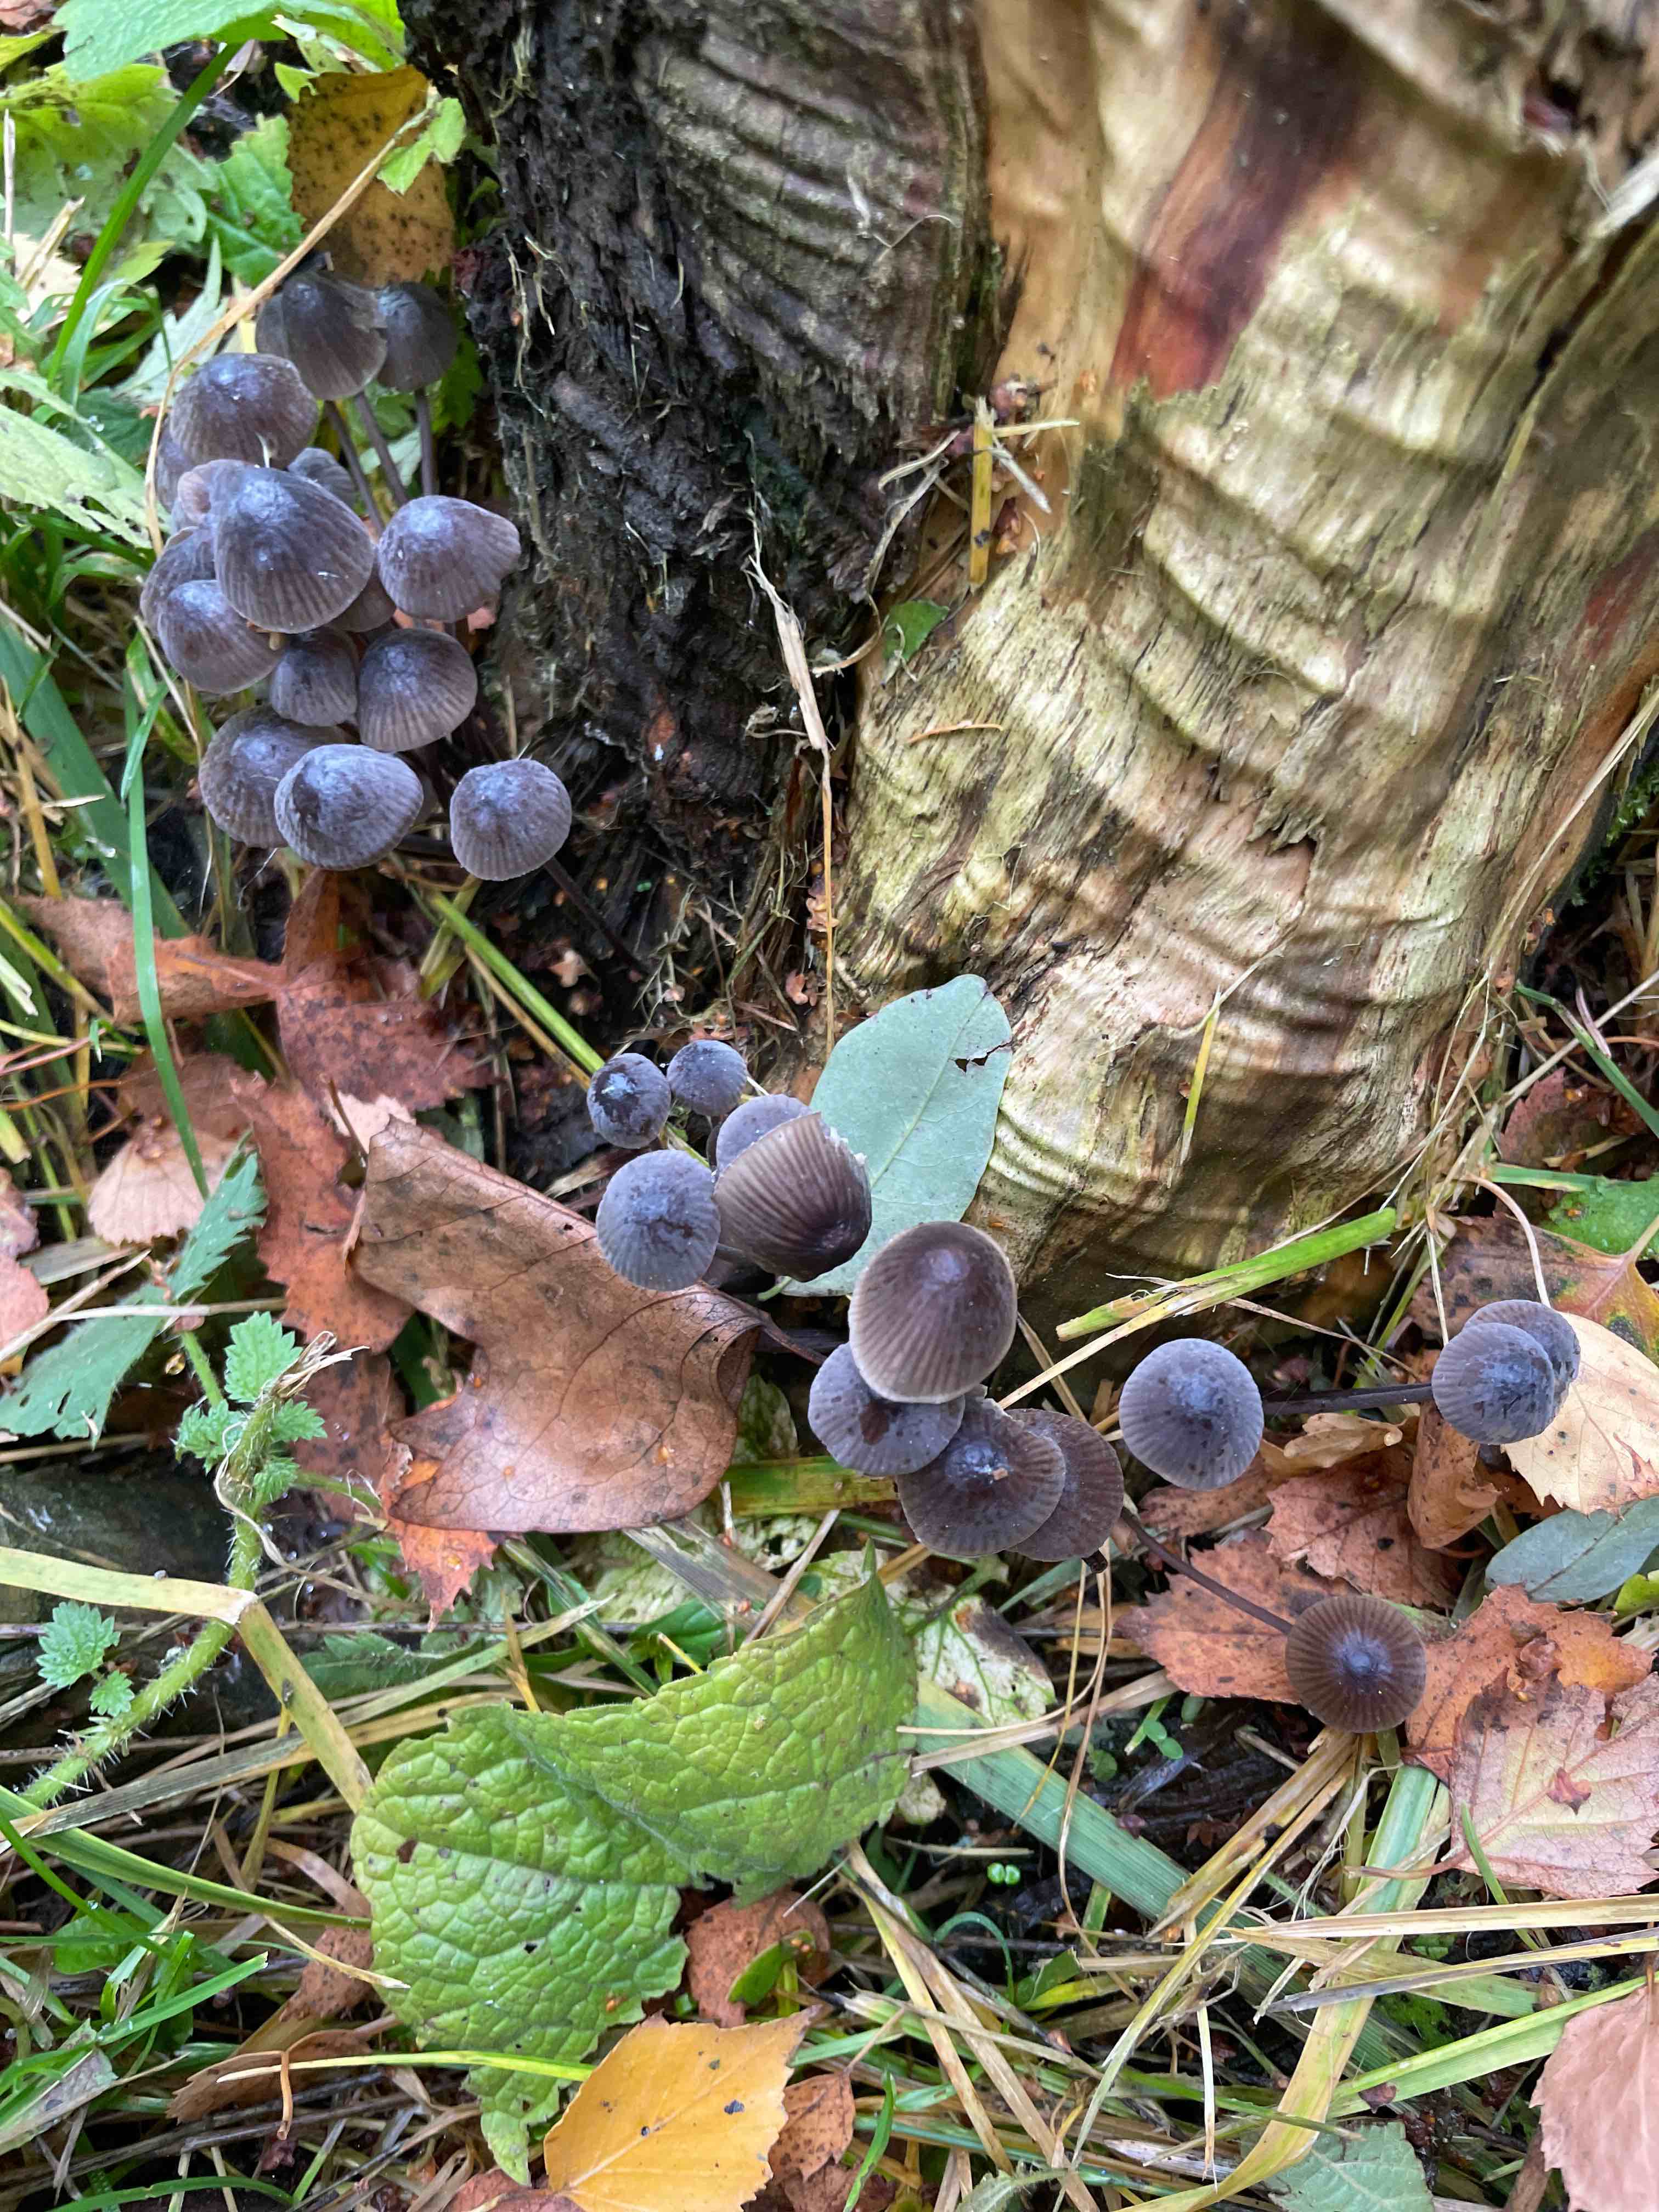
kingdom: Fungi
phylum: Basidiomycota
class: Agaricomycetes
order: Agaricales
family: Mycenaceae
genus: Mycena
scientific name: Mycena
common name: huesvamp
